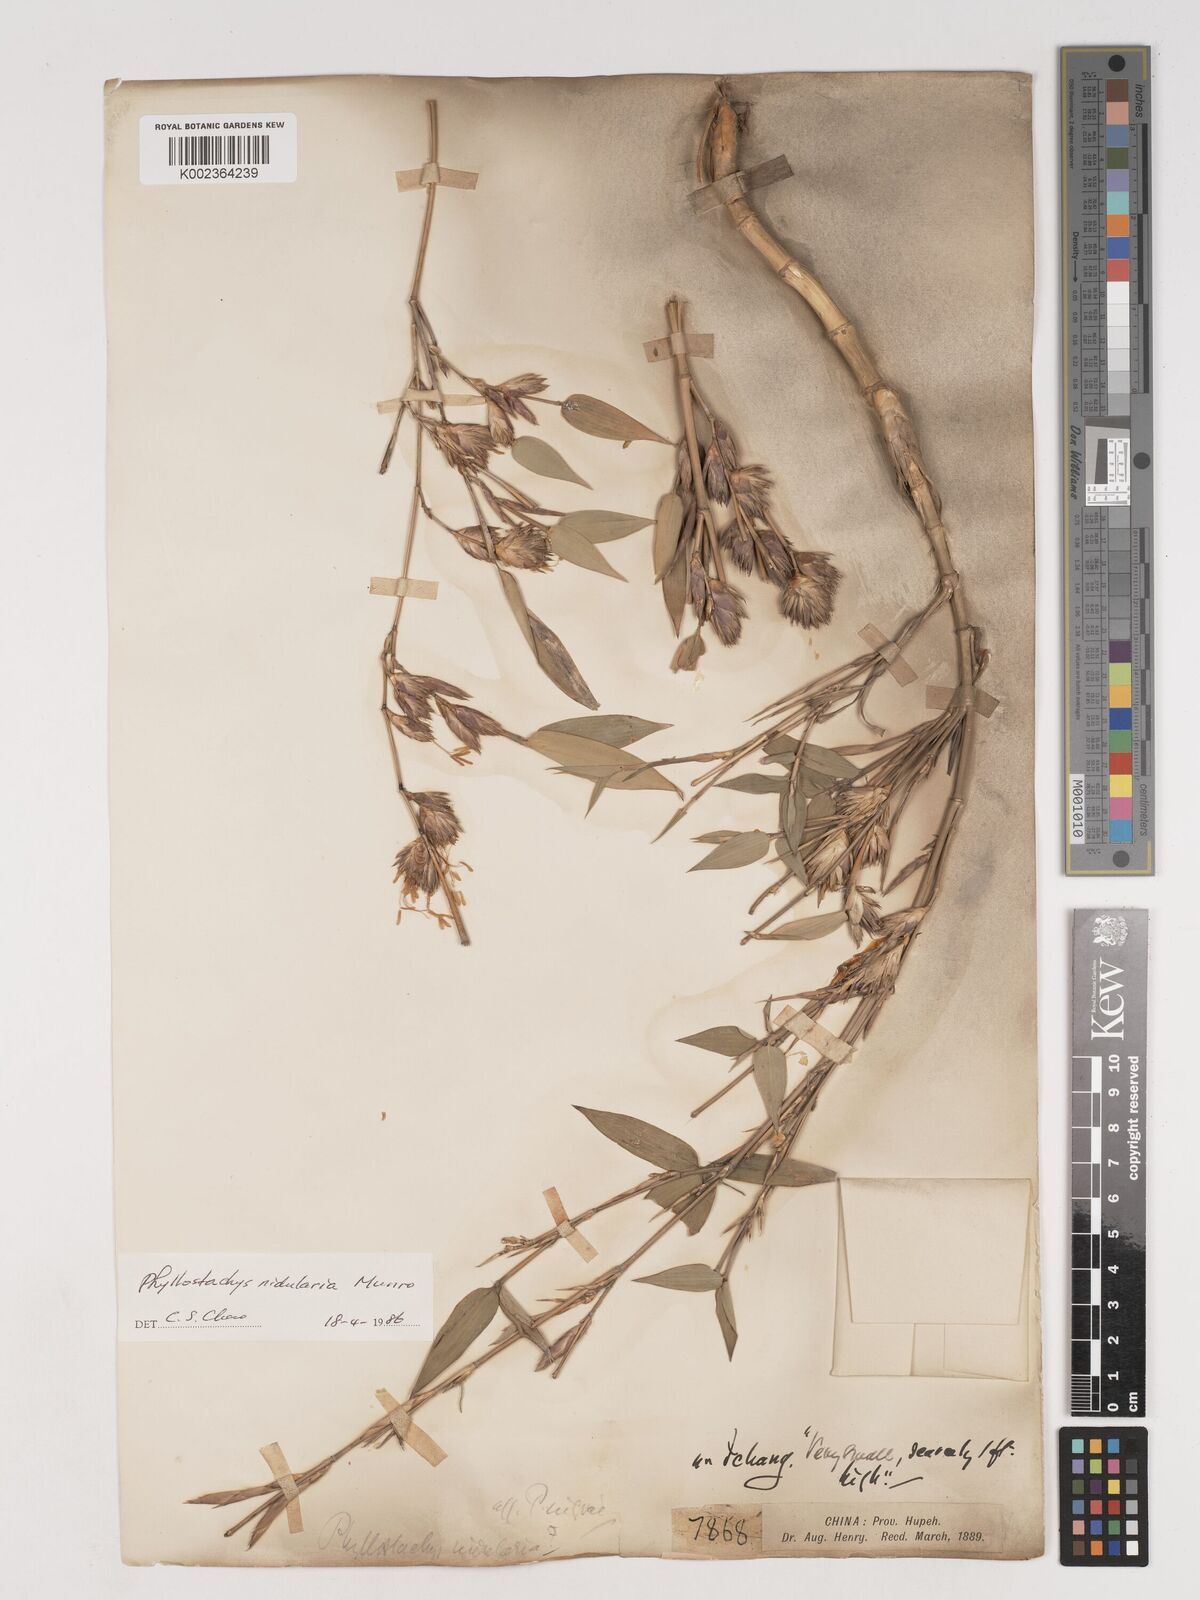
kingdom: Plantae
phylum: Tracheophyta
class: Liliopsida
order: Poales
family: Poaceae
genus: Phyllostachys
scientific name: Phyllostachys nidularia
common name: Broom bamboo
